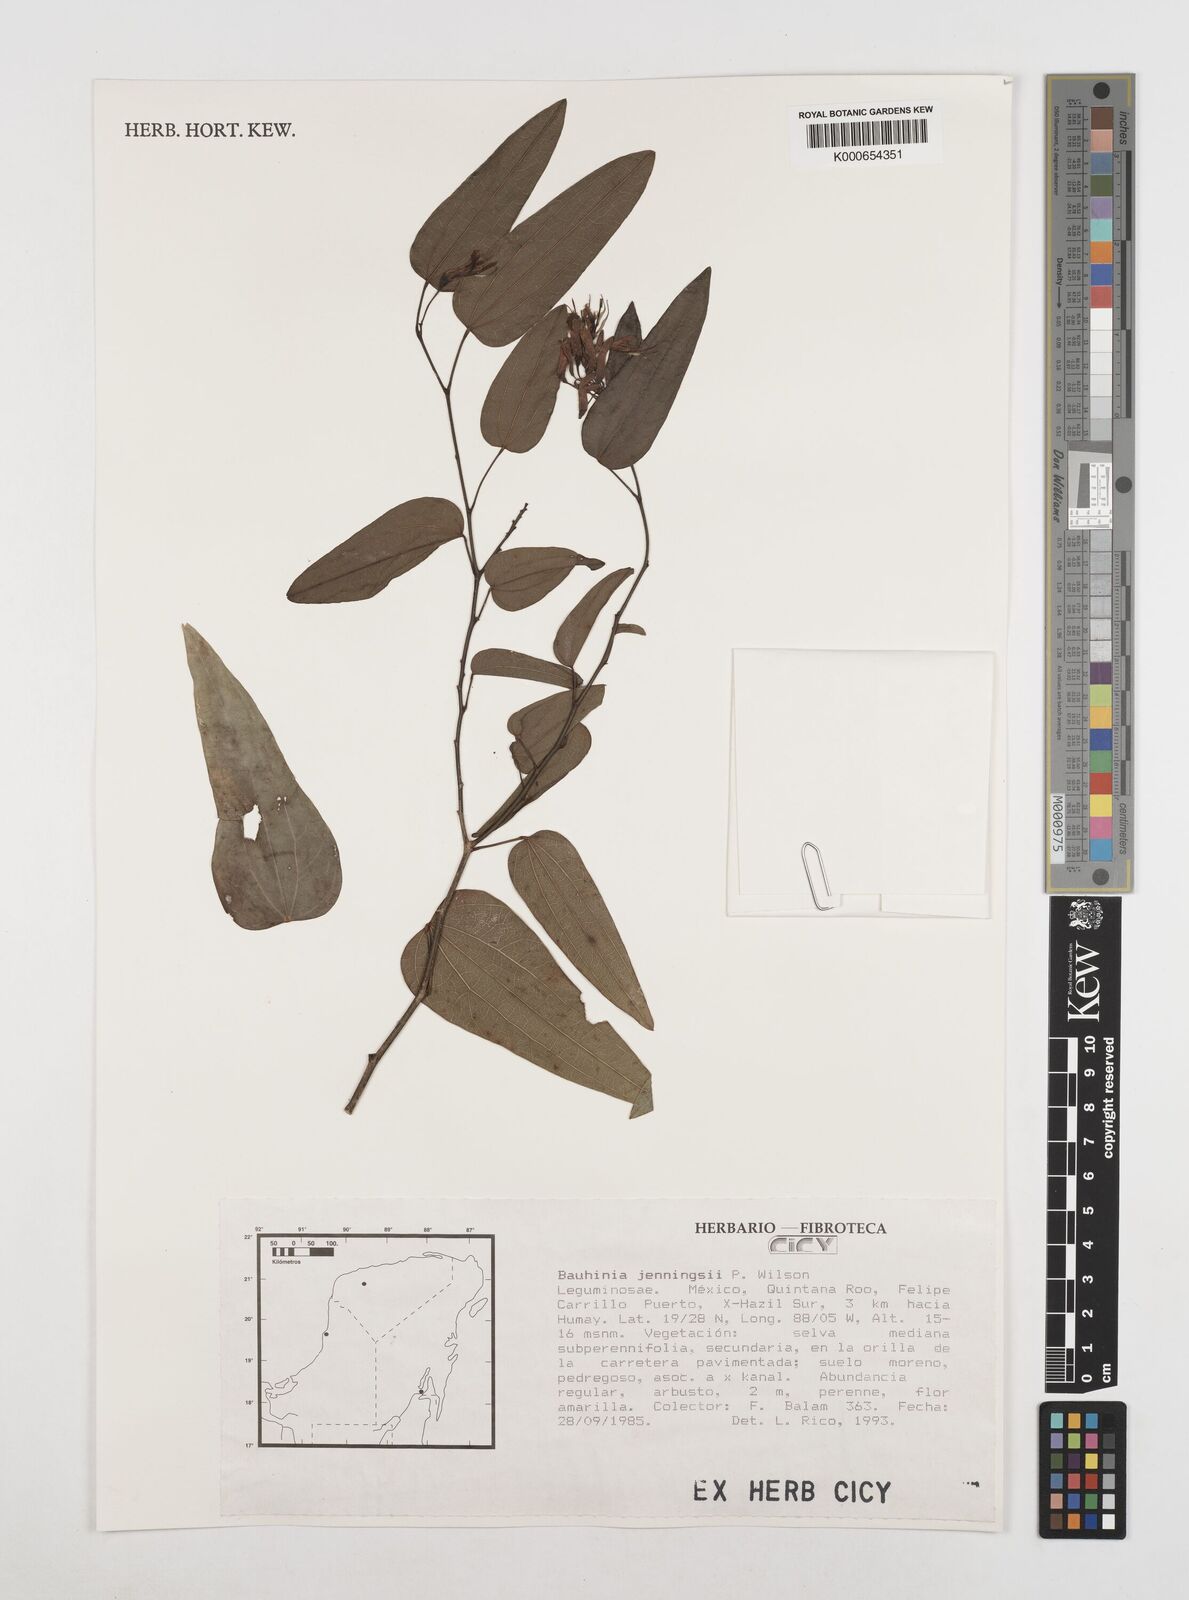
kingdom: Plantae
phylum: Tracheophyta
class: Magnoliopsida
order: Fabales
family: Fabaceae
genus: Bauhinia
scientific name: Bauhinia jenningsii
